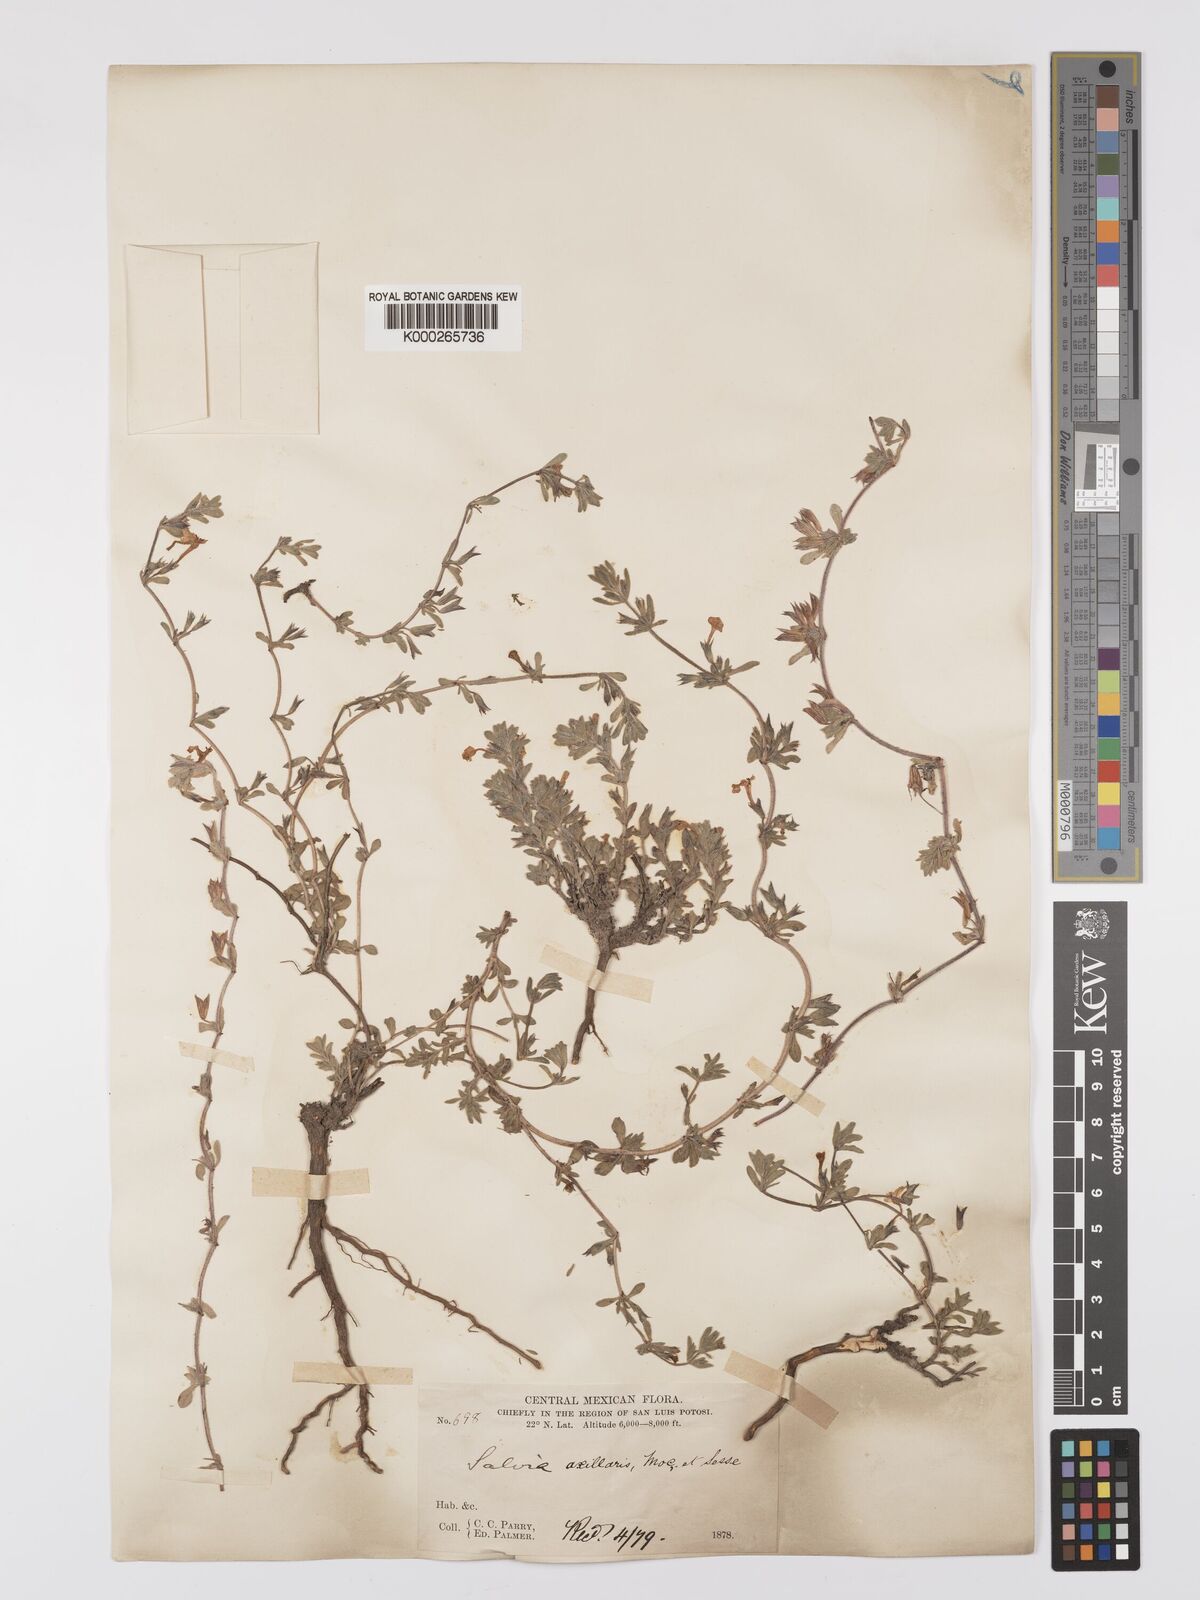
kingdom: Plantae
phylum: Tracheophyta
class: Magnoliopsida
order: Lamiales
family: Lamiaceae
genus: Salvia
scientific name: Salvia
